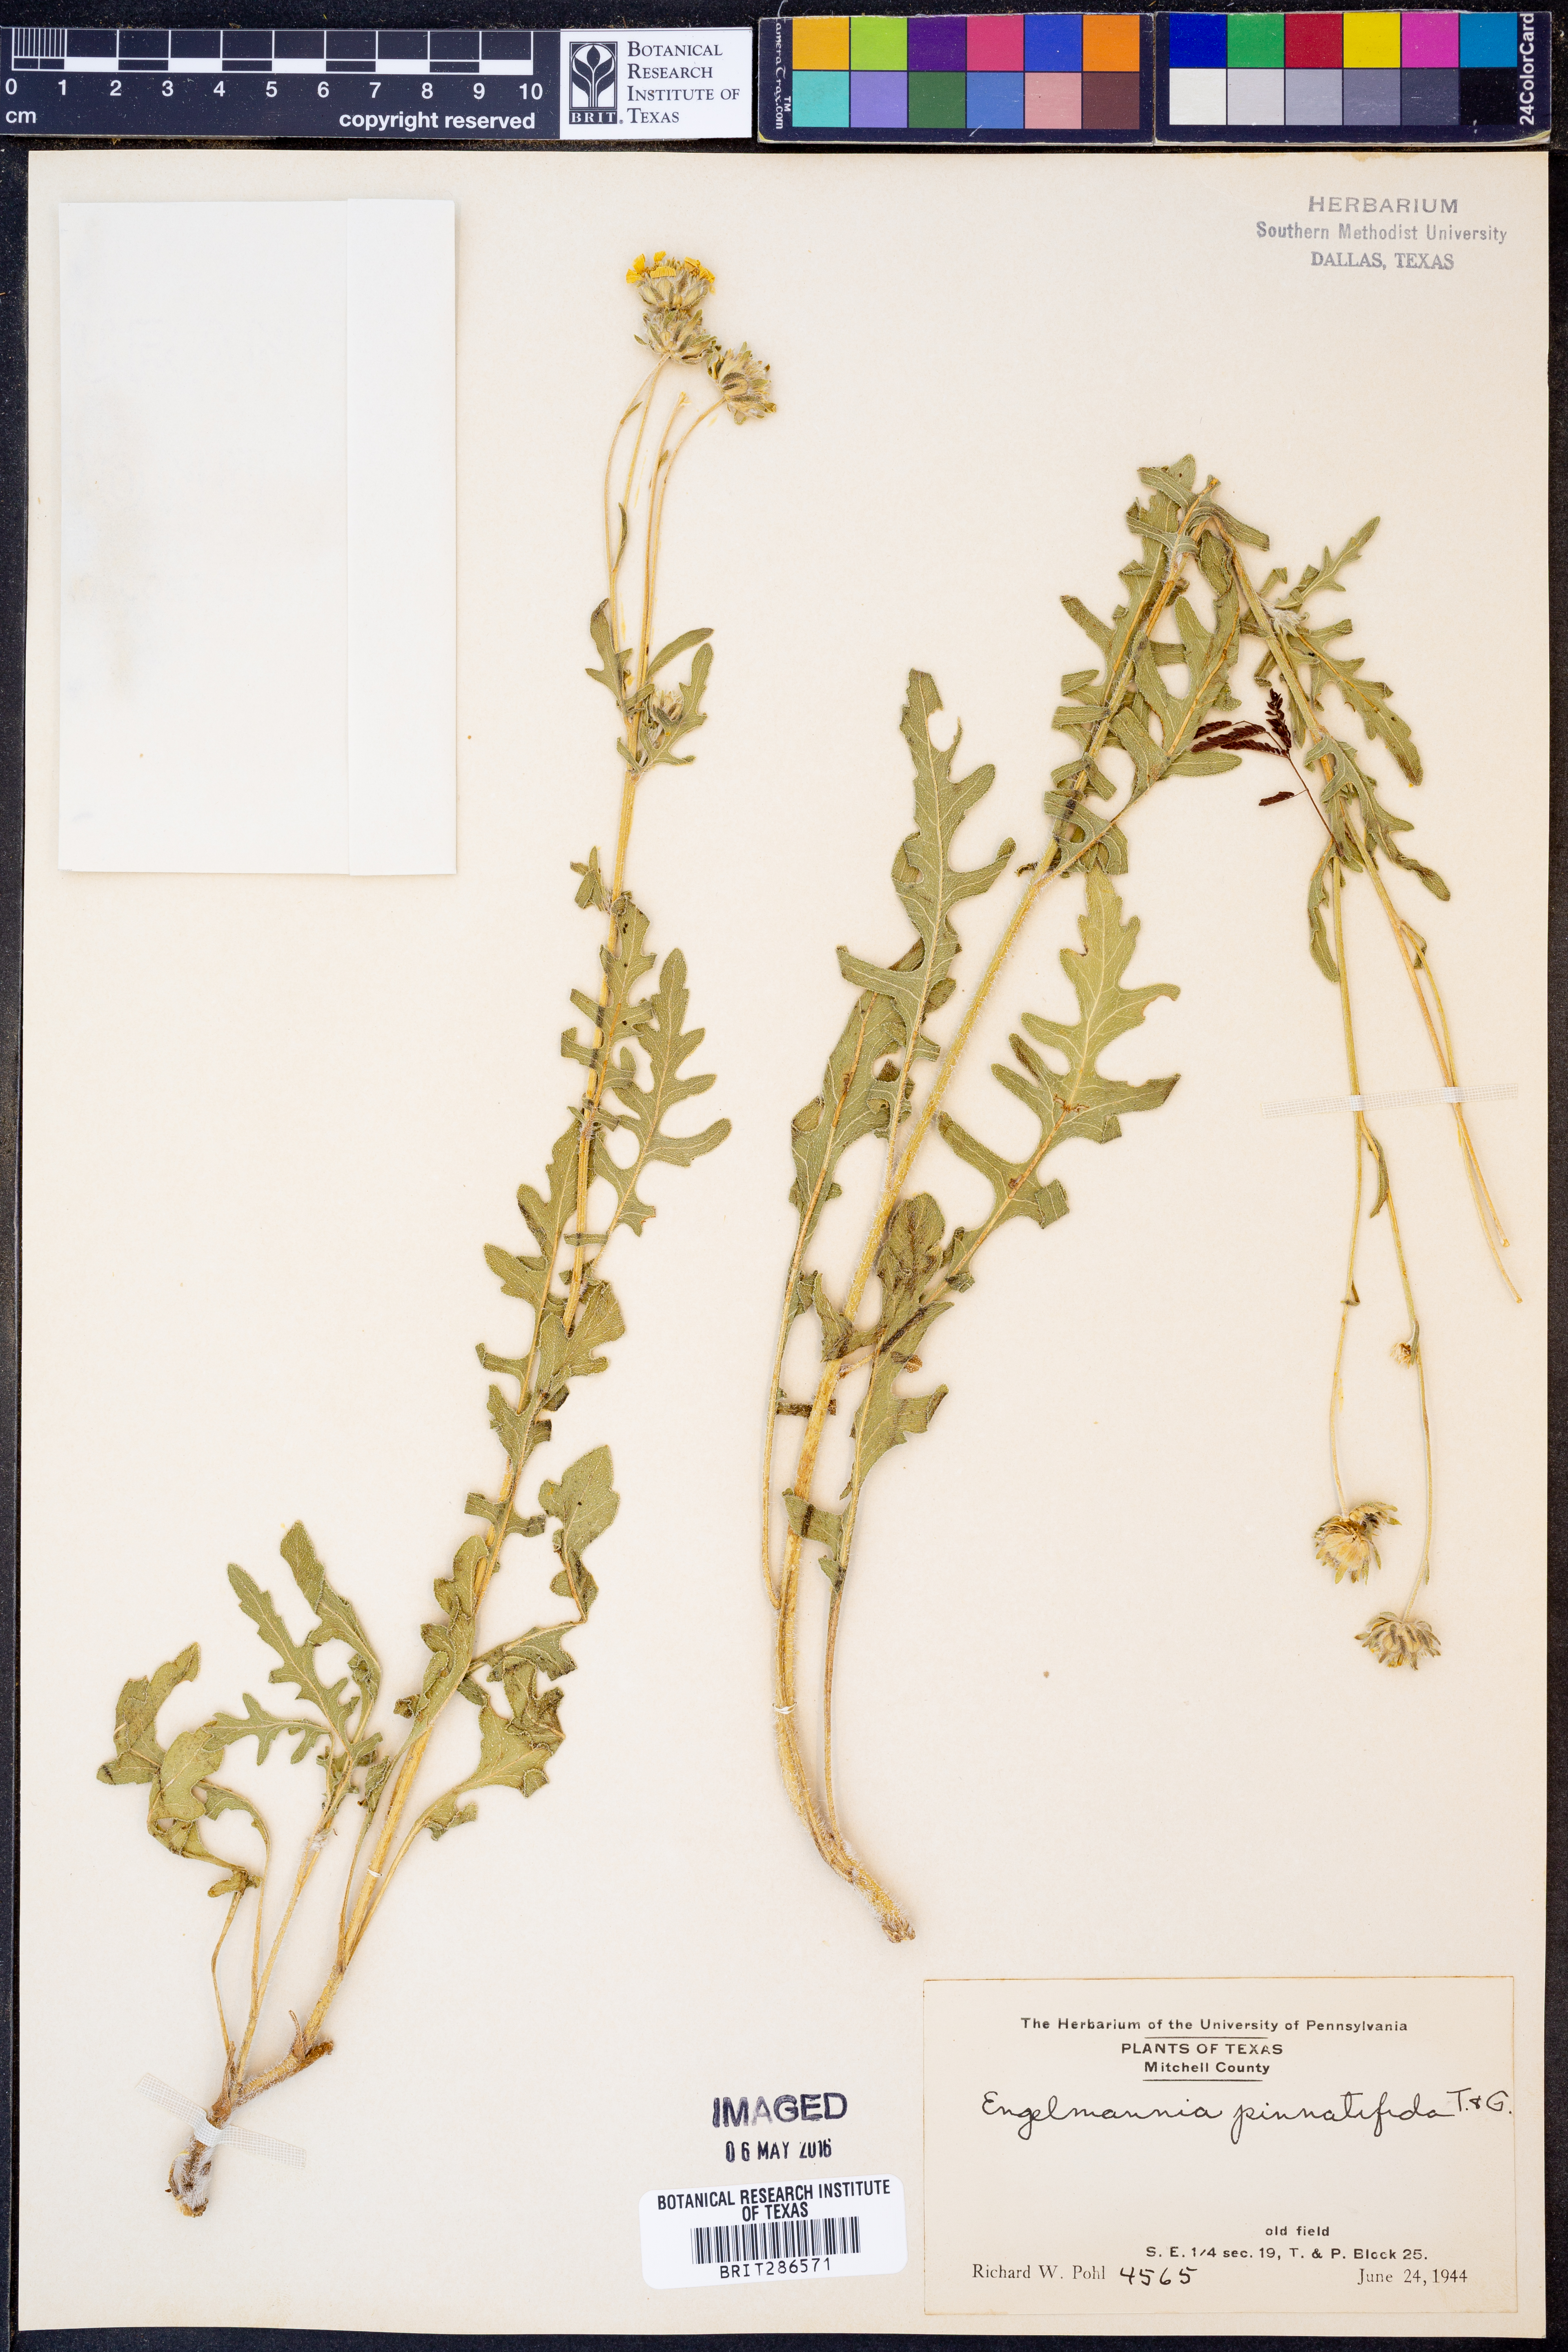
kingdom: Plantae
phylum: Tracheophyta
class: Magnoliopsida
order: Asterales
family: Asteraceae
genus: Engelmannia
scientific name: Engelmannia peristenia
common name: Engelmann's daisy
